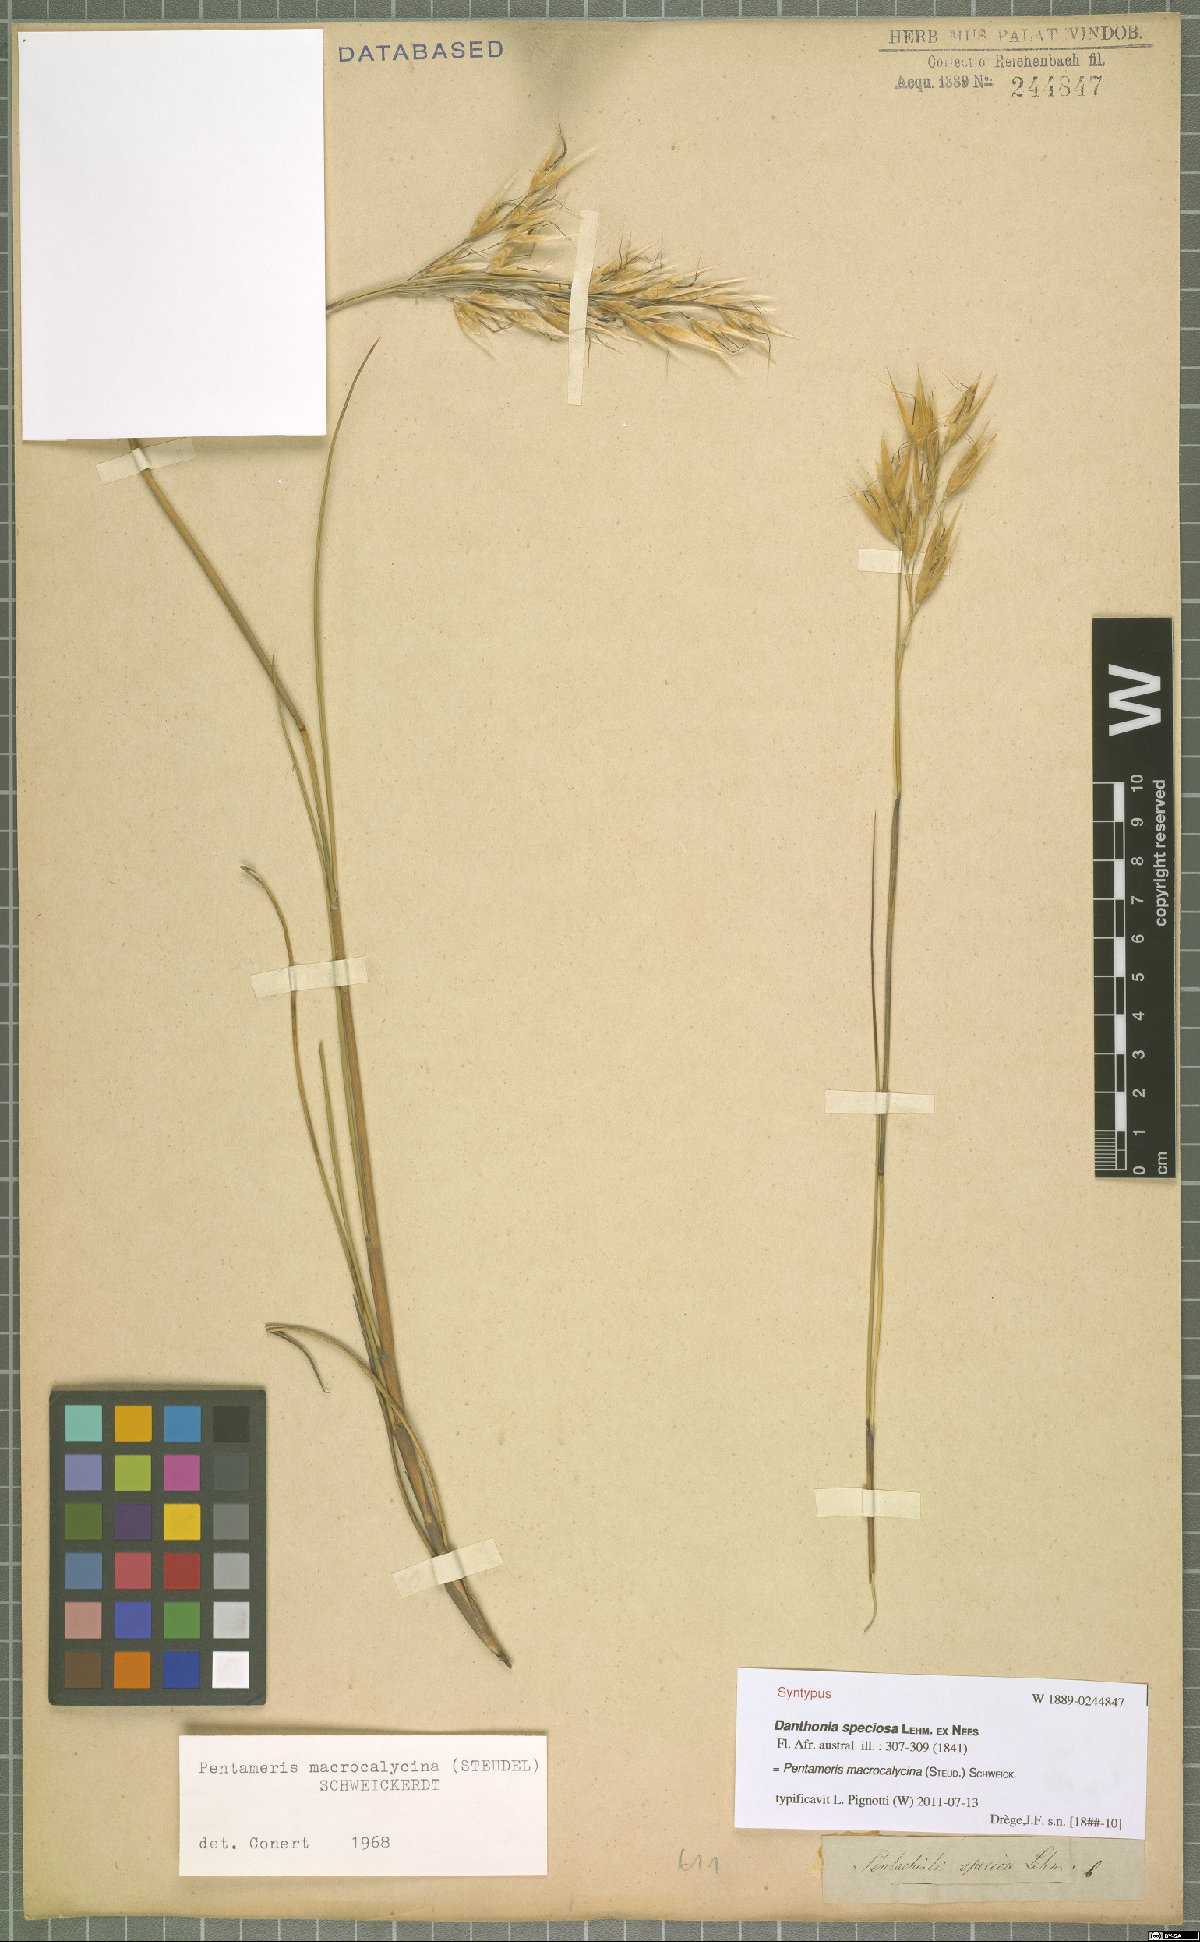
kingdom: Plantae
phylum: Tracheophyta
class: Liliopsida
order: Poales
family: Poaceae
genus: Pentameris
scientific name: Pentameris macrocalycina
